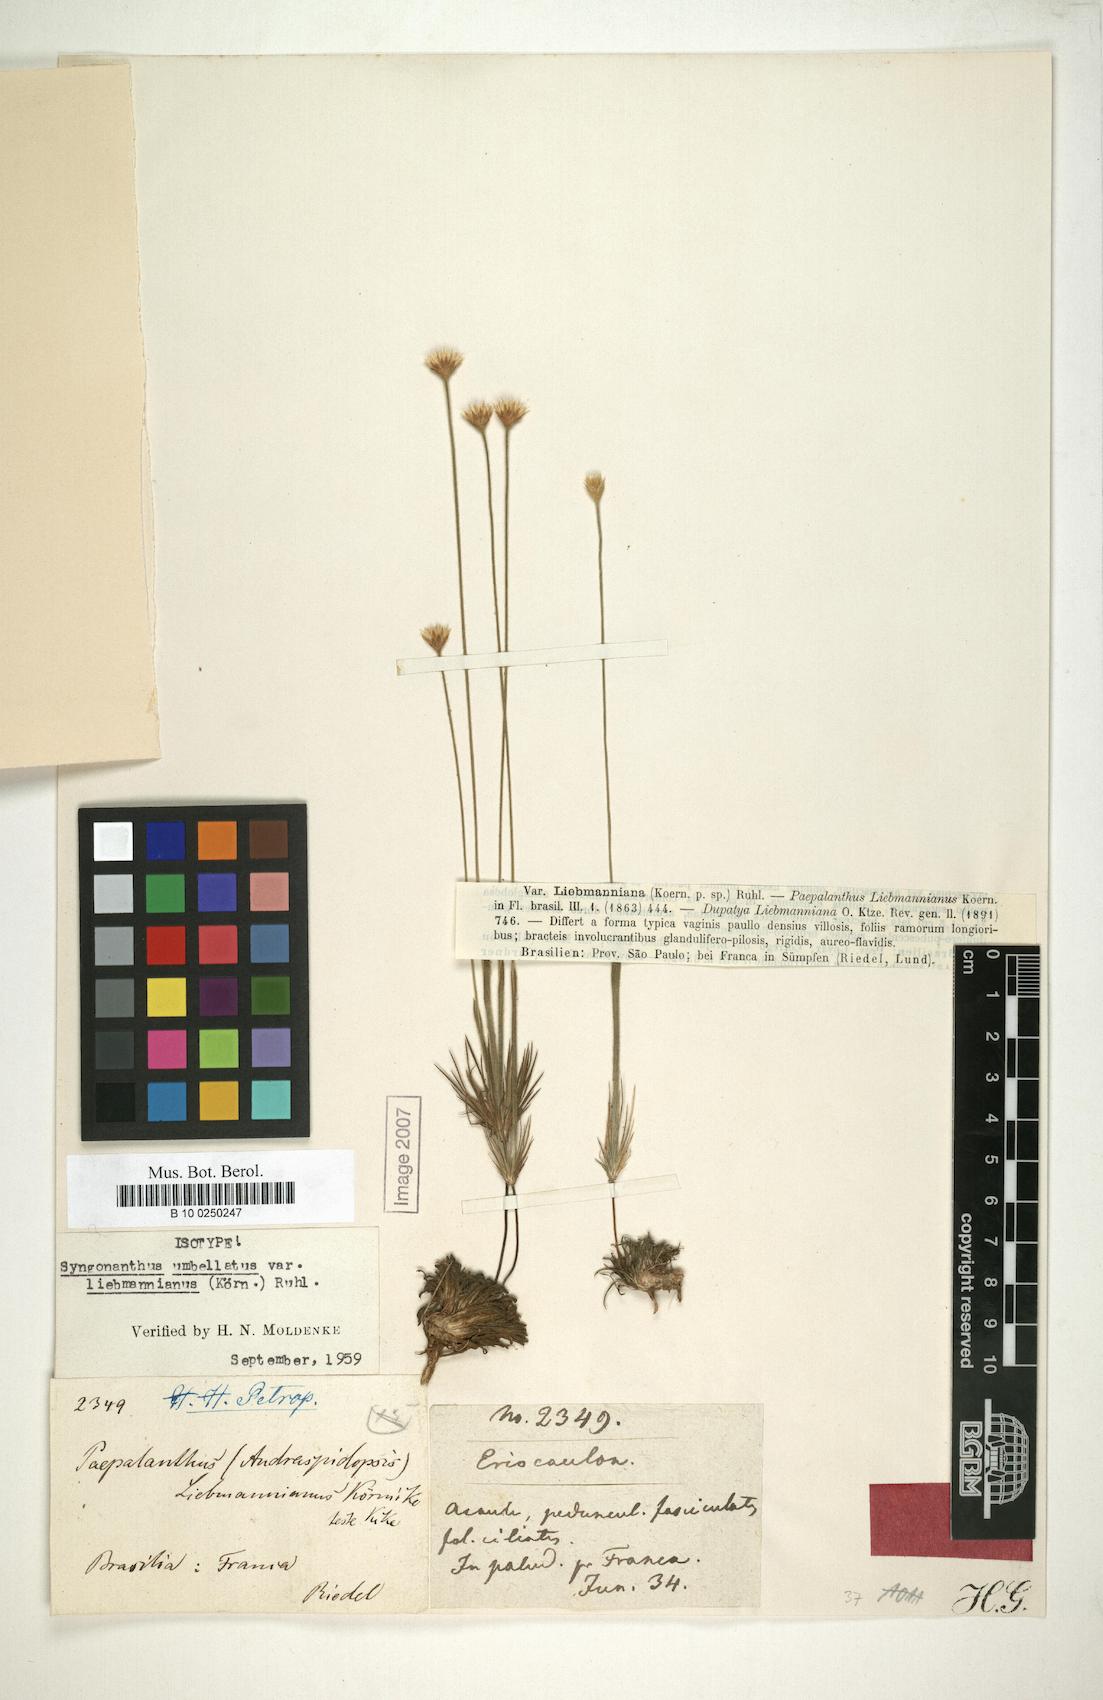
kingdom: Plantae
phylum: Tracheophyta
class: Liliopsida
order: Poales
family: Eriocaulaceae
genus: Syngonanthus
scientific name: Syngonanthus umbellatus
